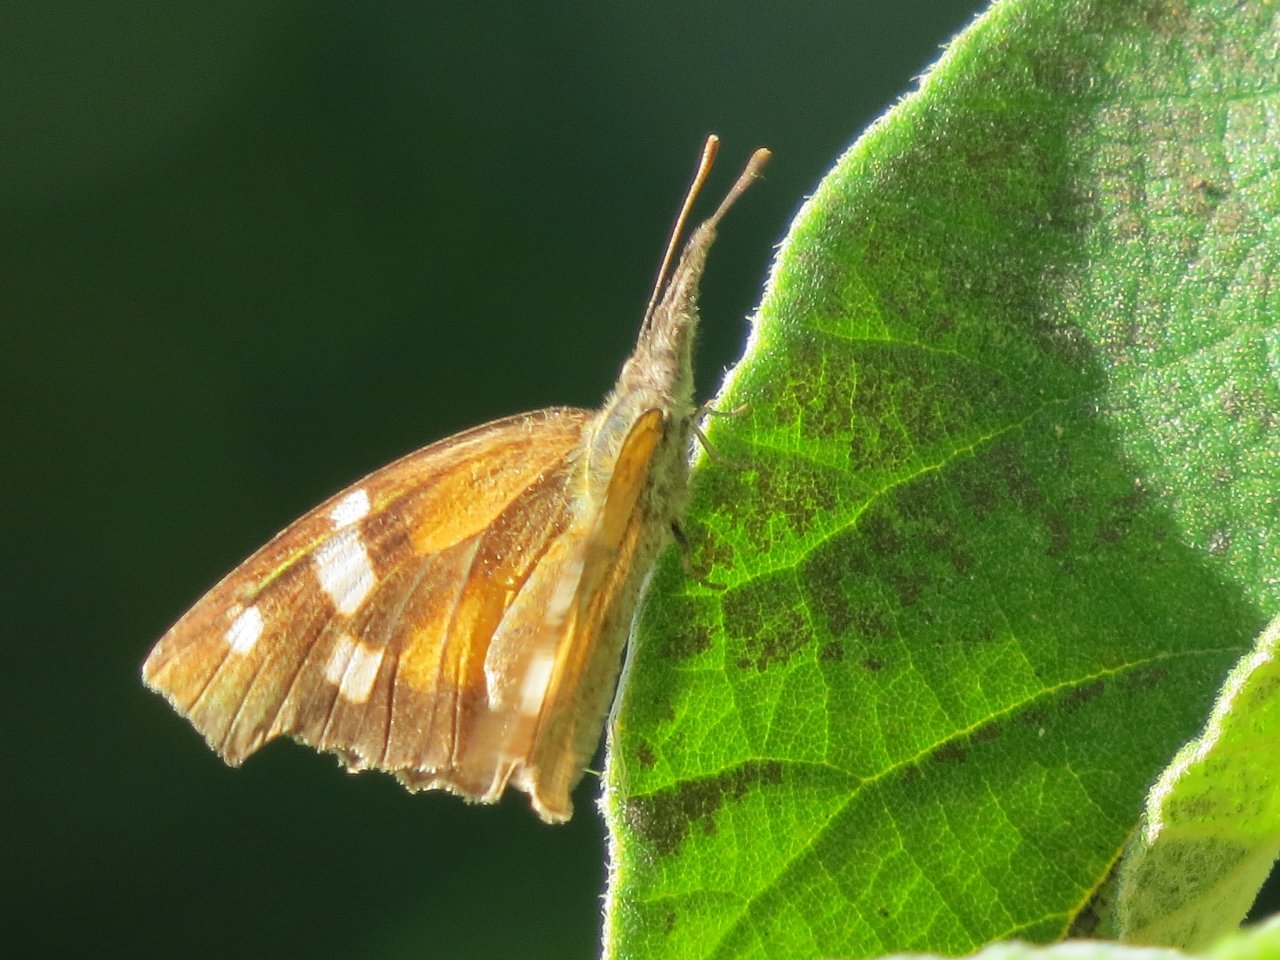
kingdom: Animalia
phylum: Arthropoda
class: Insecta
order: Lepidoptera
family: Nymphalidae
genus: Libytheana
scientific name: Libytheana carinenta
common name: American Snout
